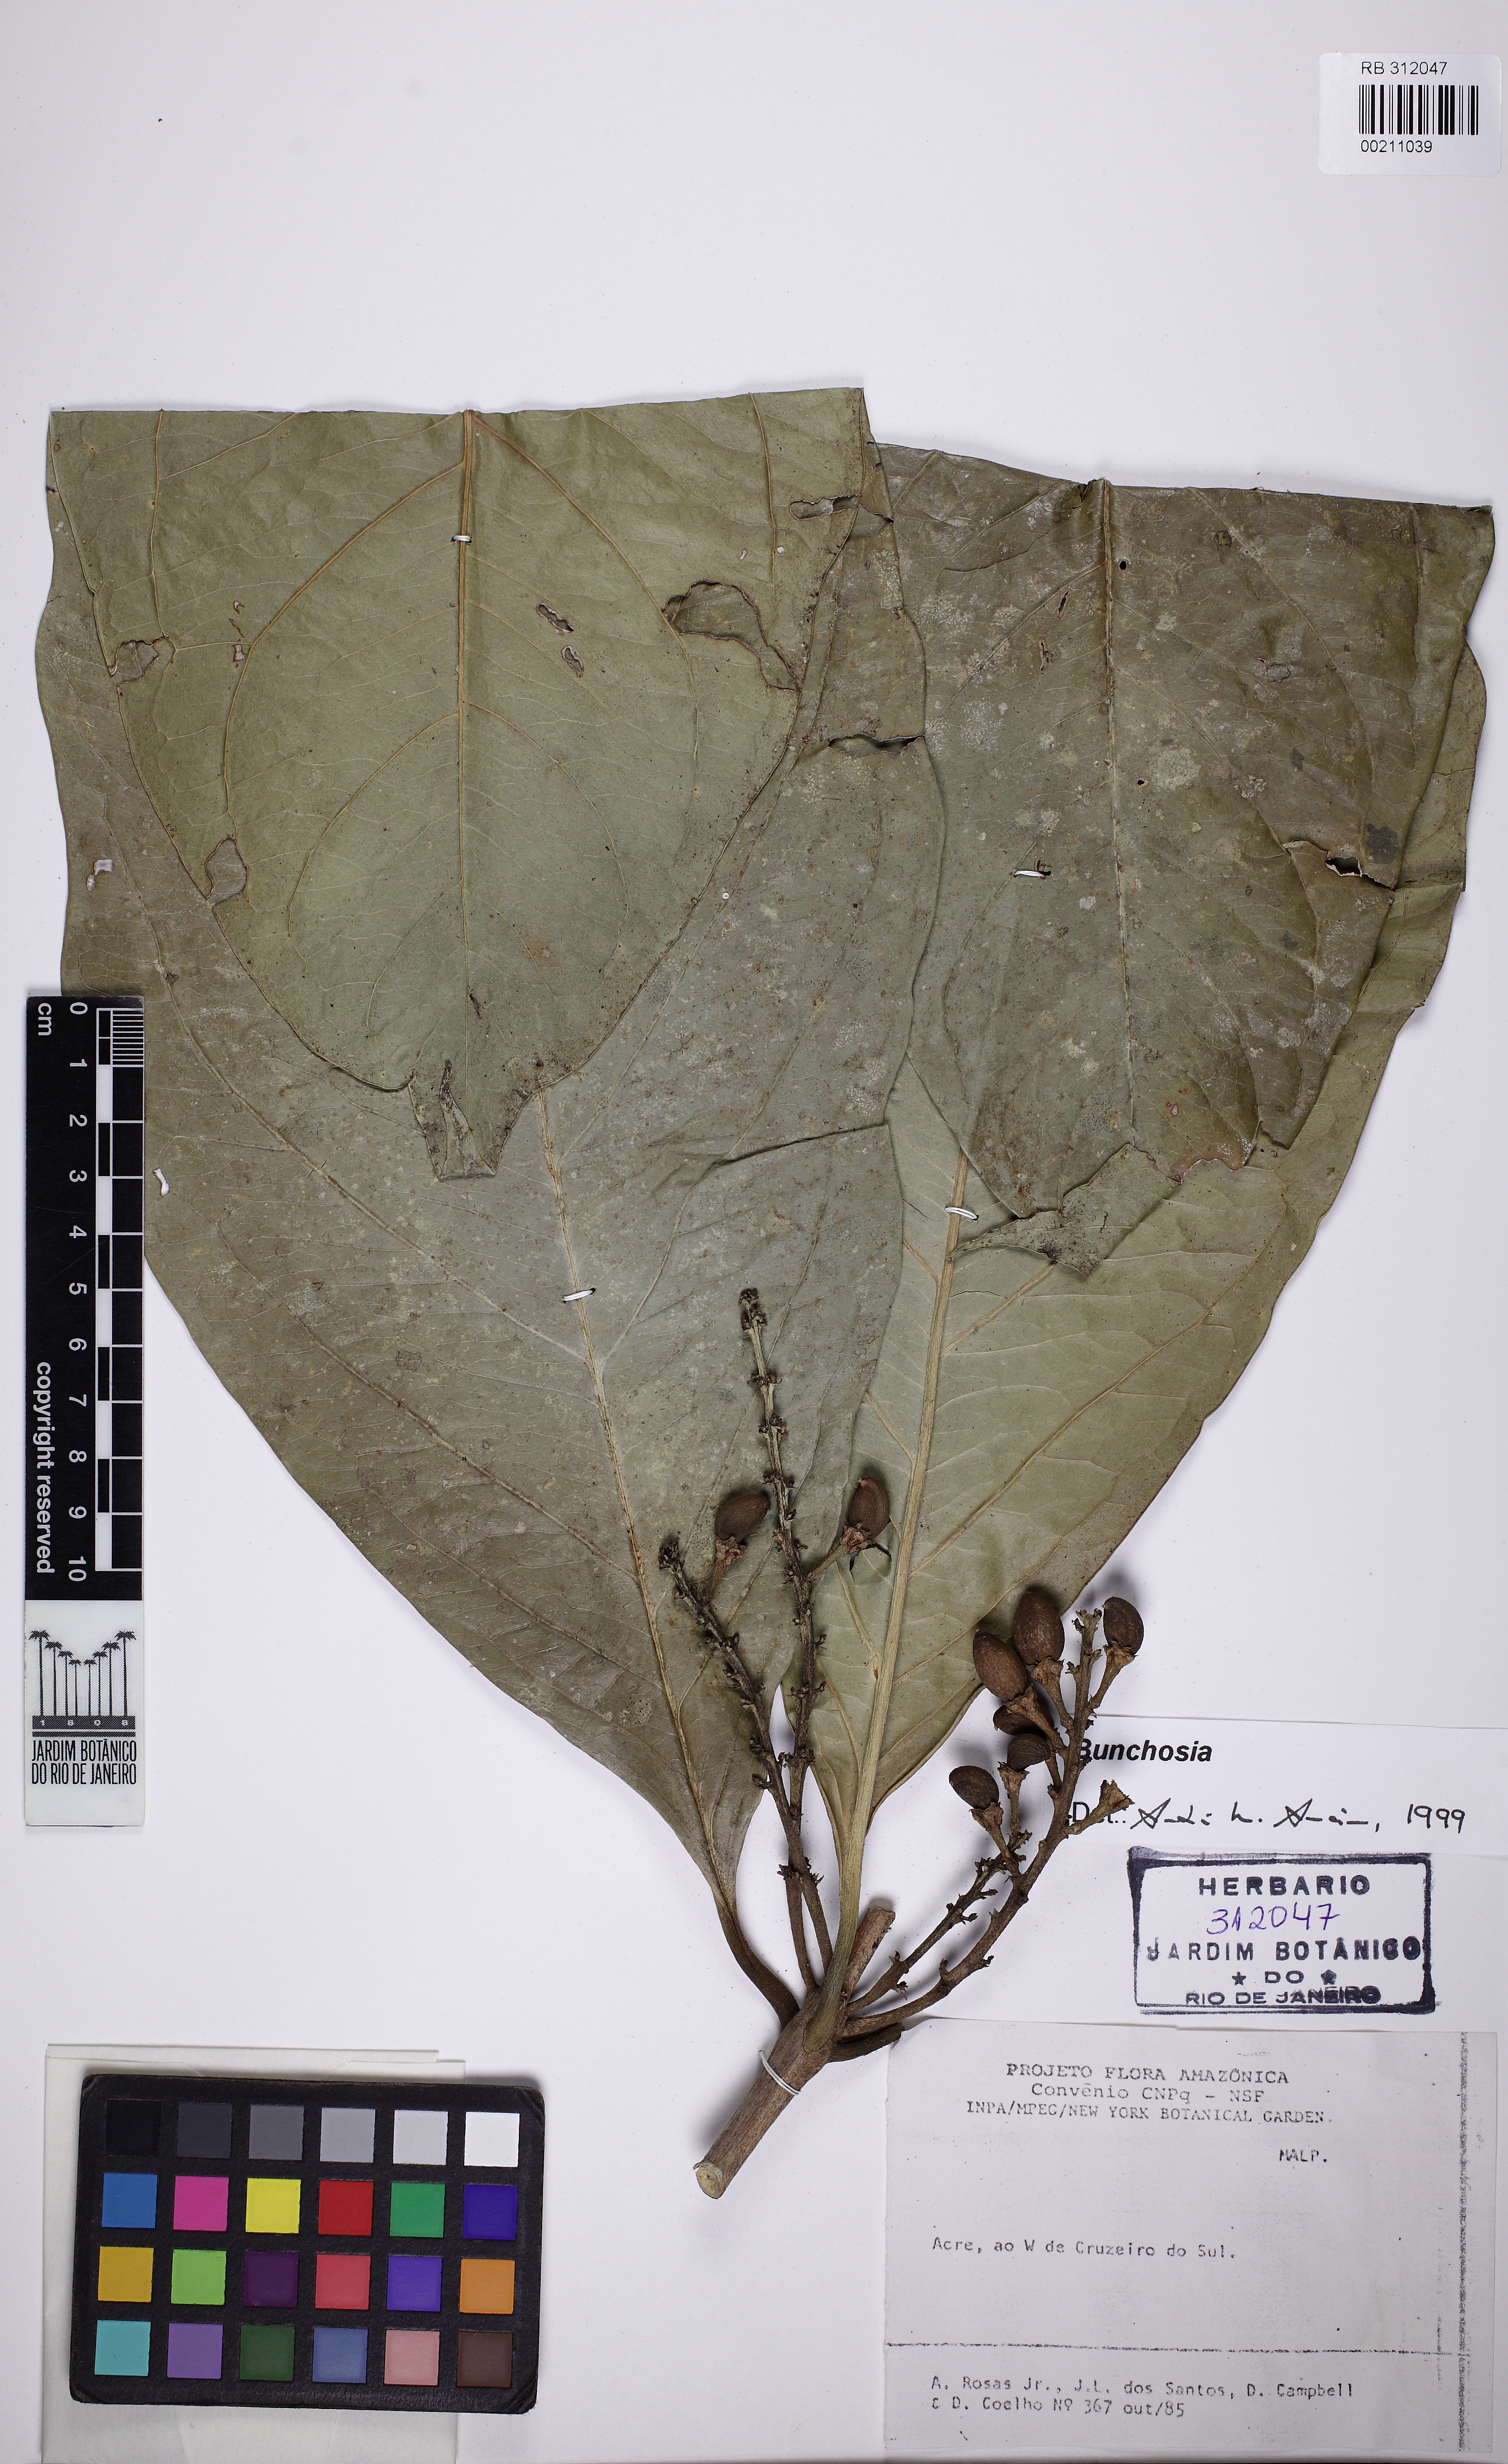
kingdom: Plantae
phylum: Tracheophyta
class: Magnoliopsida
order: Malpighiales
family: Malpighiaceae
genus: Bunchosia
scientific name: Bunchosia
